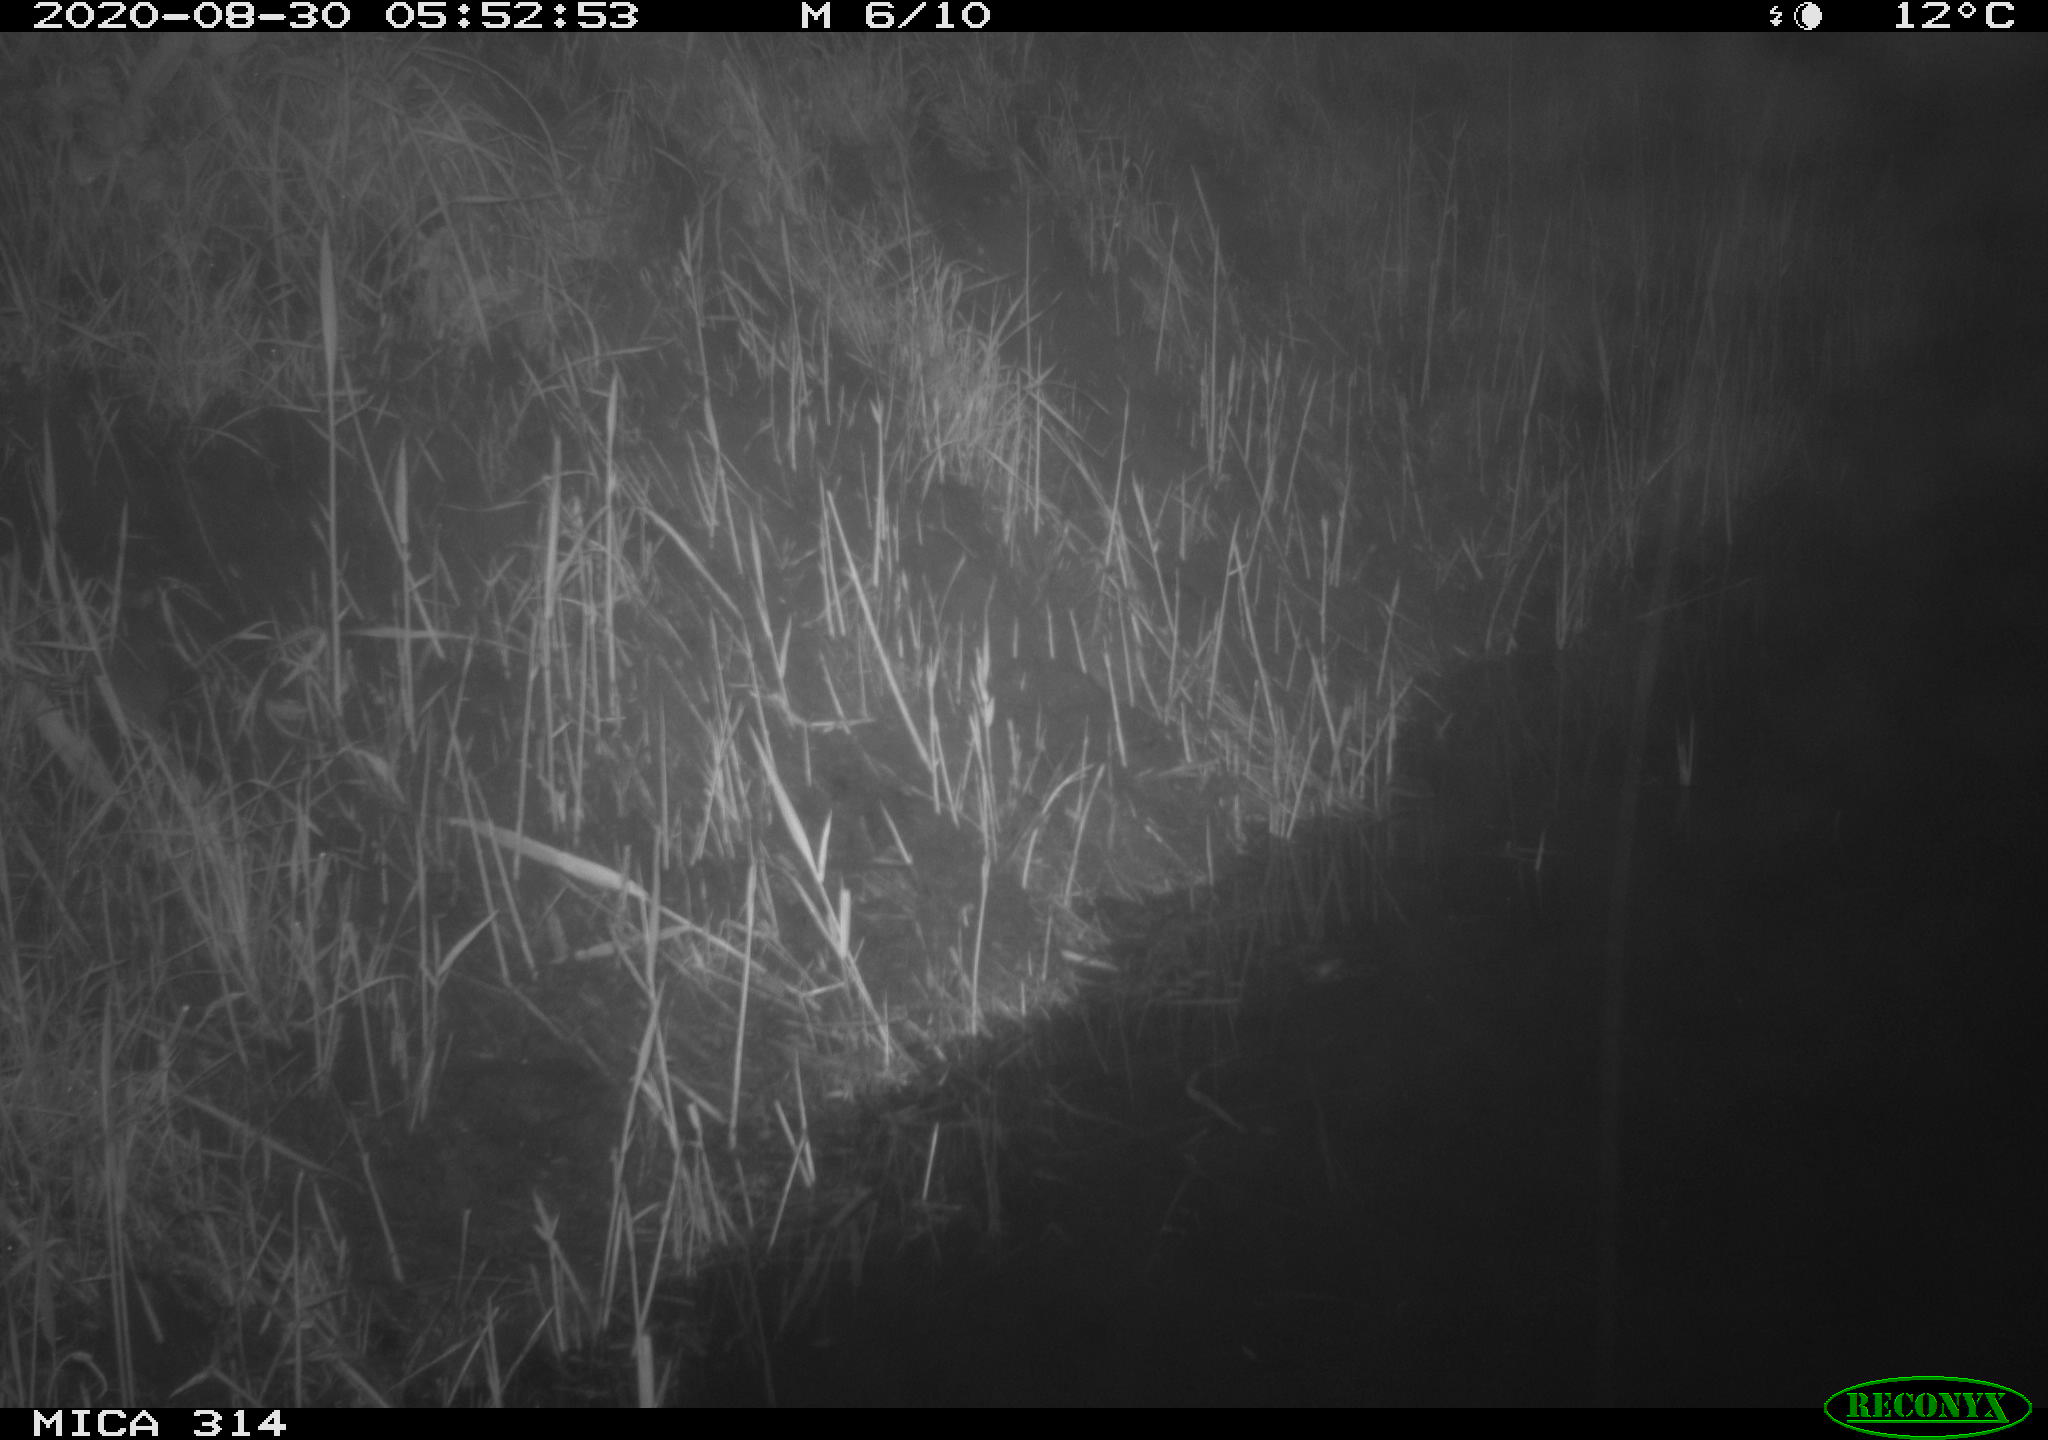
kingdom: Animalia
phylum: Chordata
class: Mammalia
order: Rodentia
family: Muridae
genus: Rattus
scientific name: Rattus norvegicus
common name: Brown rat
